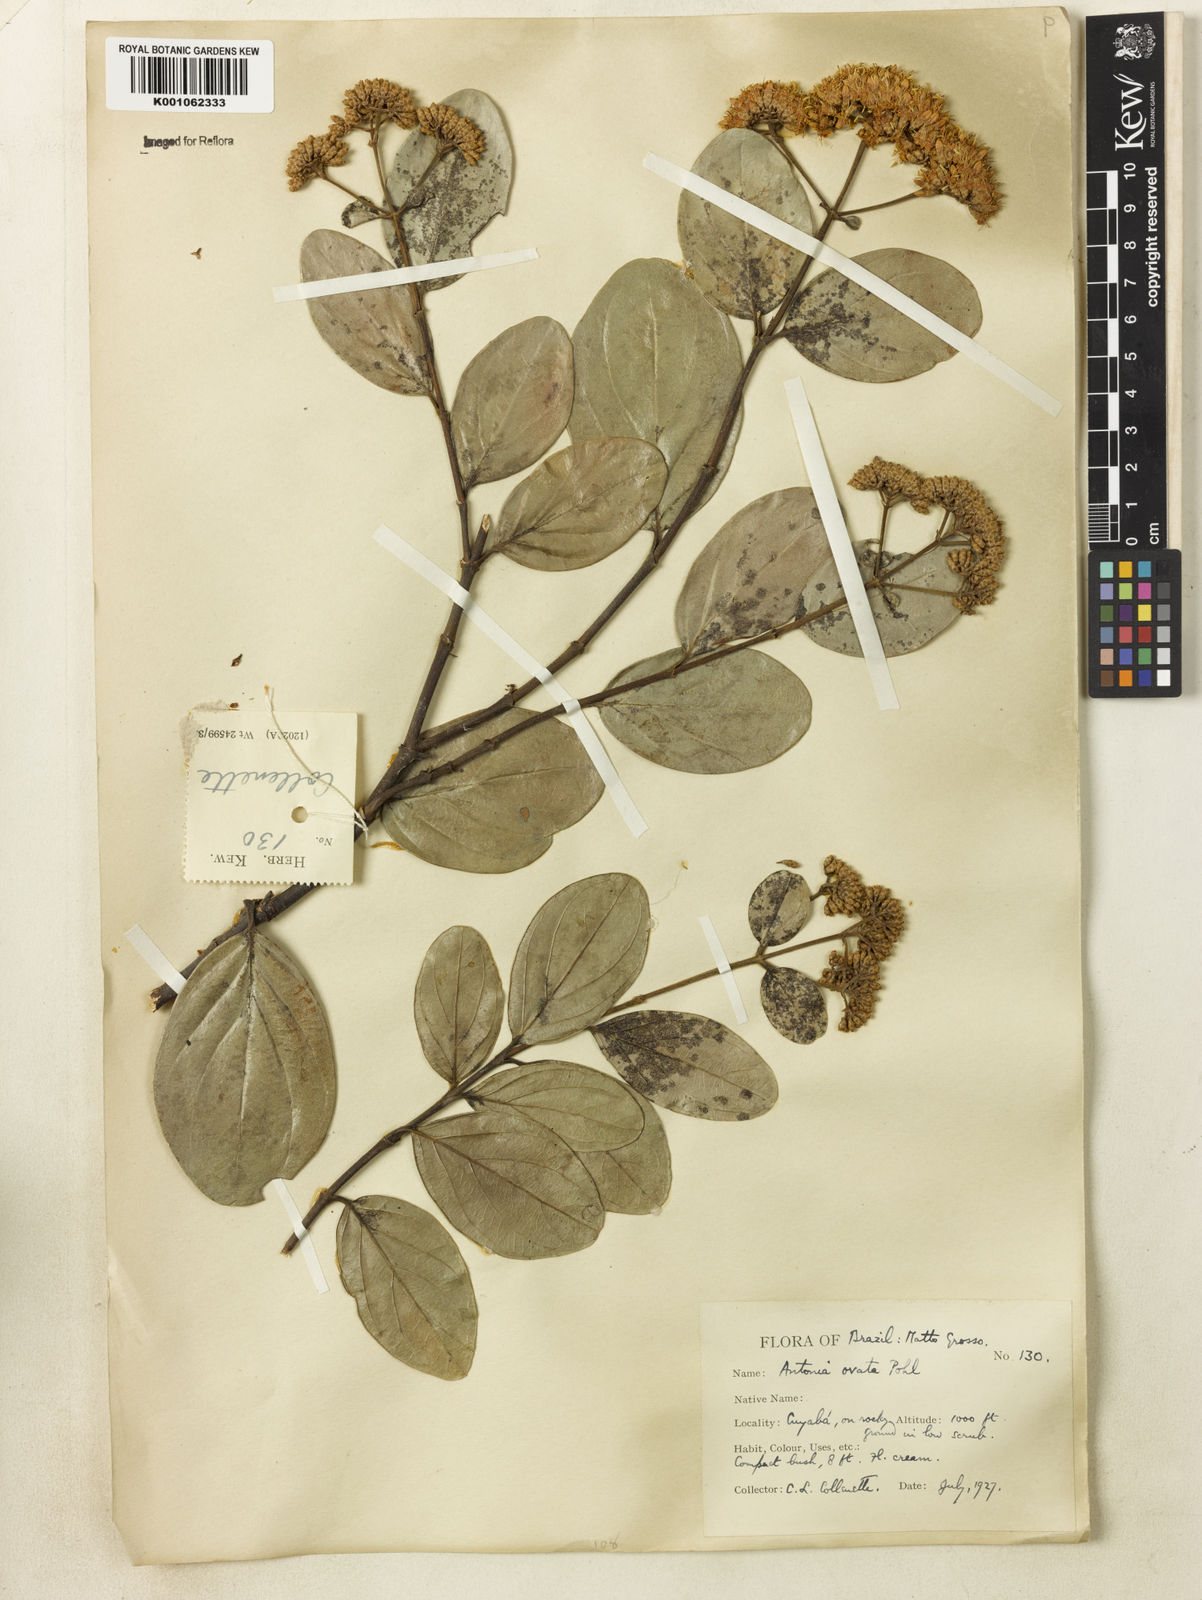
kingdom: Plantae
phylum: Tracheophyta
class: Magnoliopsida
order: Gentianales
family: Loganiaceae
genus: Antonia
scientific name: Antonia ovata
